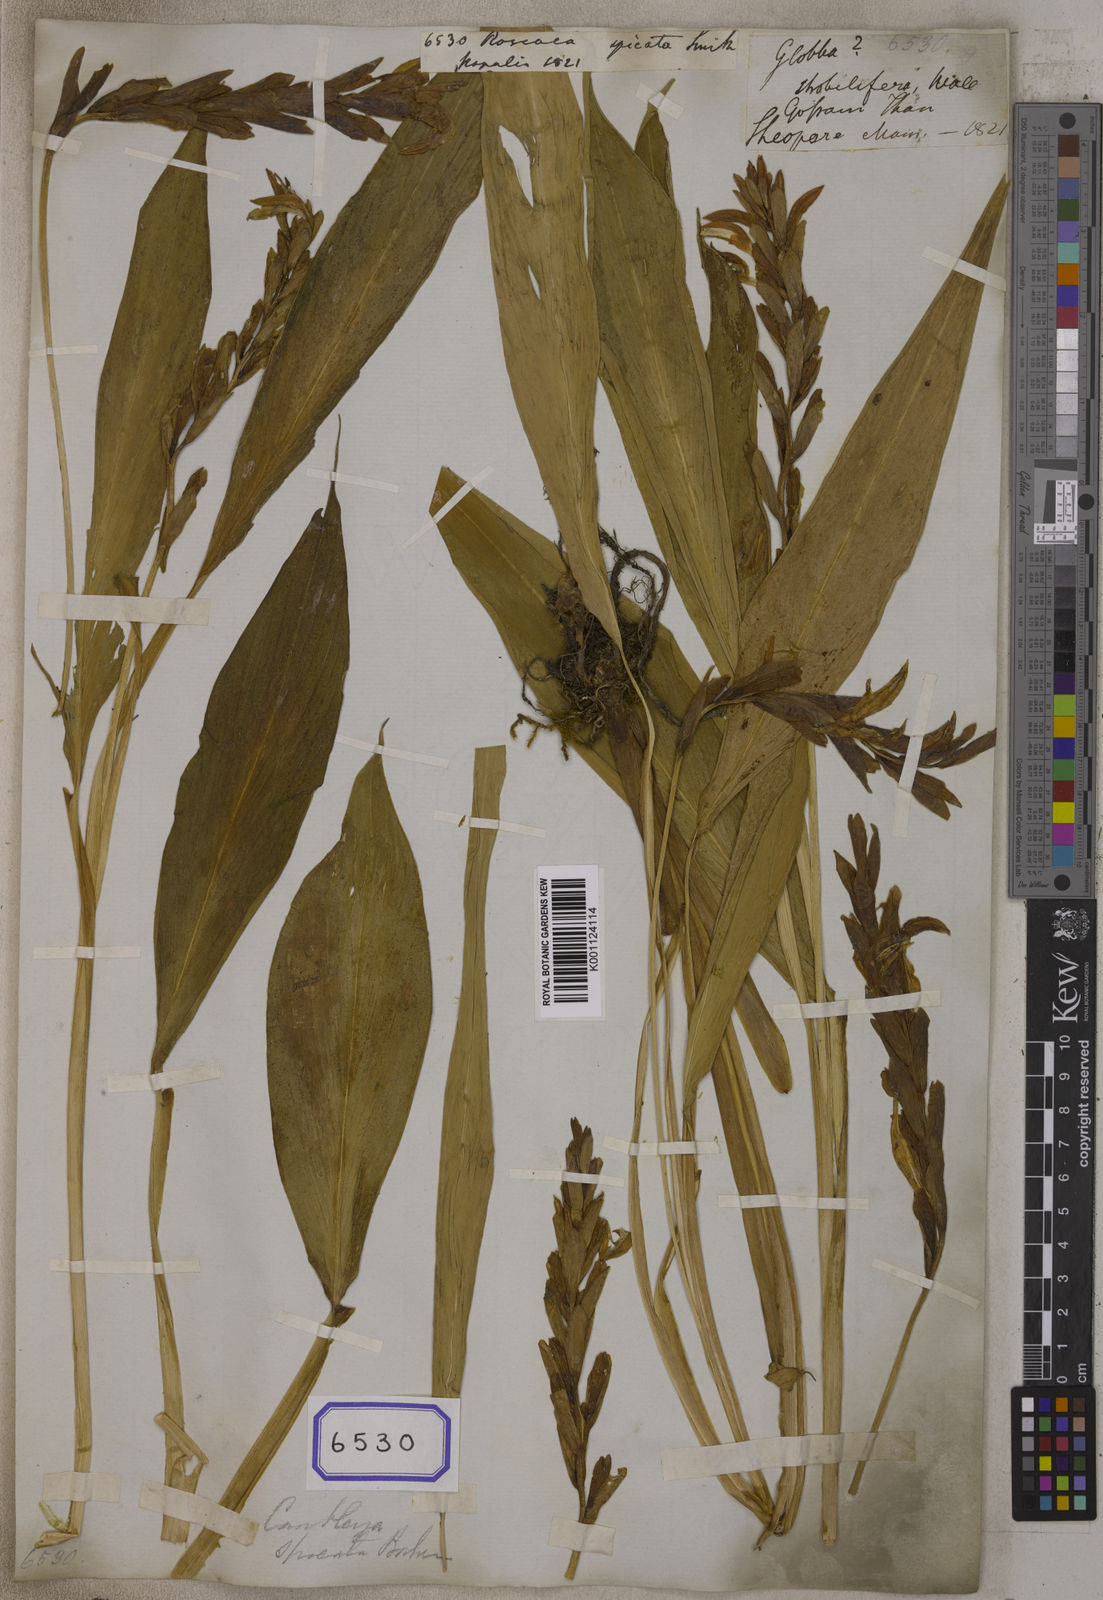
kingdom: Plantae
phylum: Tracheophyta
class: Liliopsida
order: Zingiberales
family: Zingiberaceae
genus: Cautleya
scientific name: Cautleya spicata
